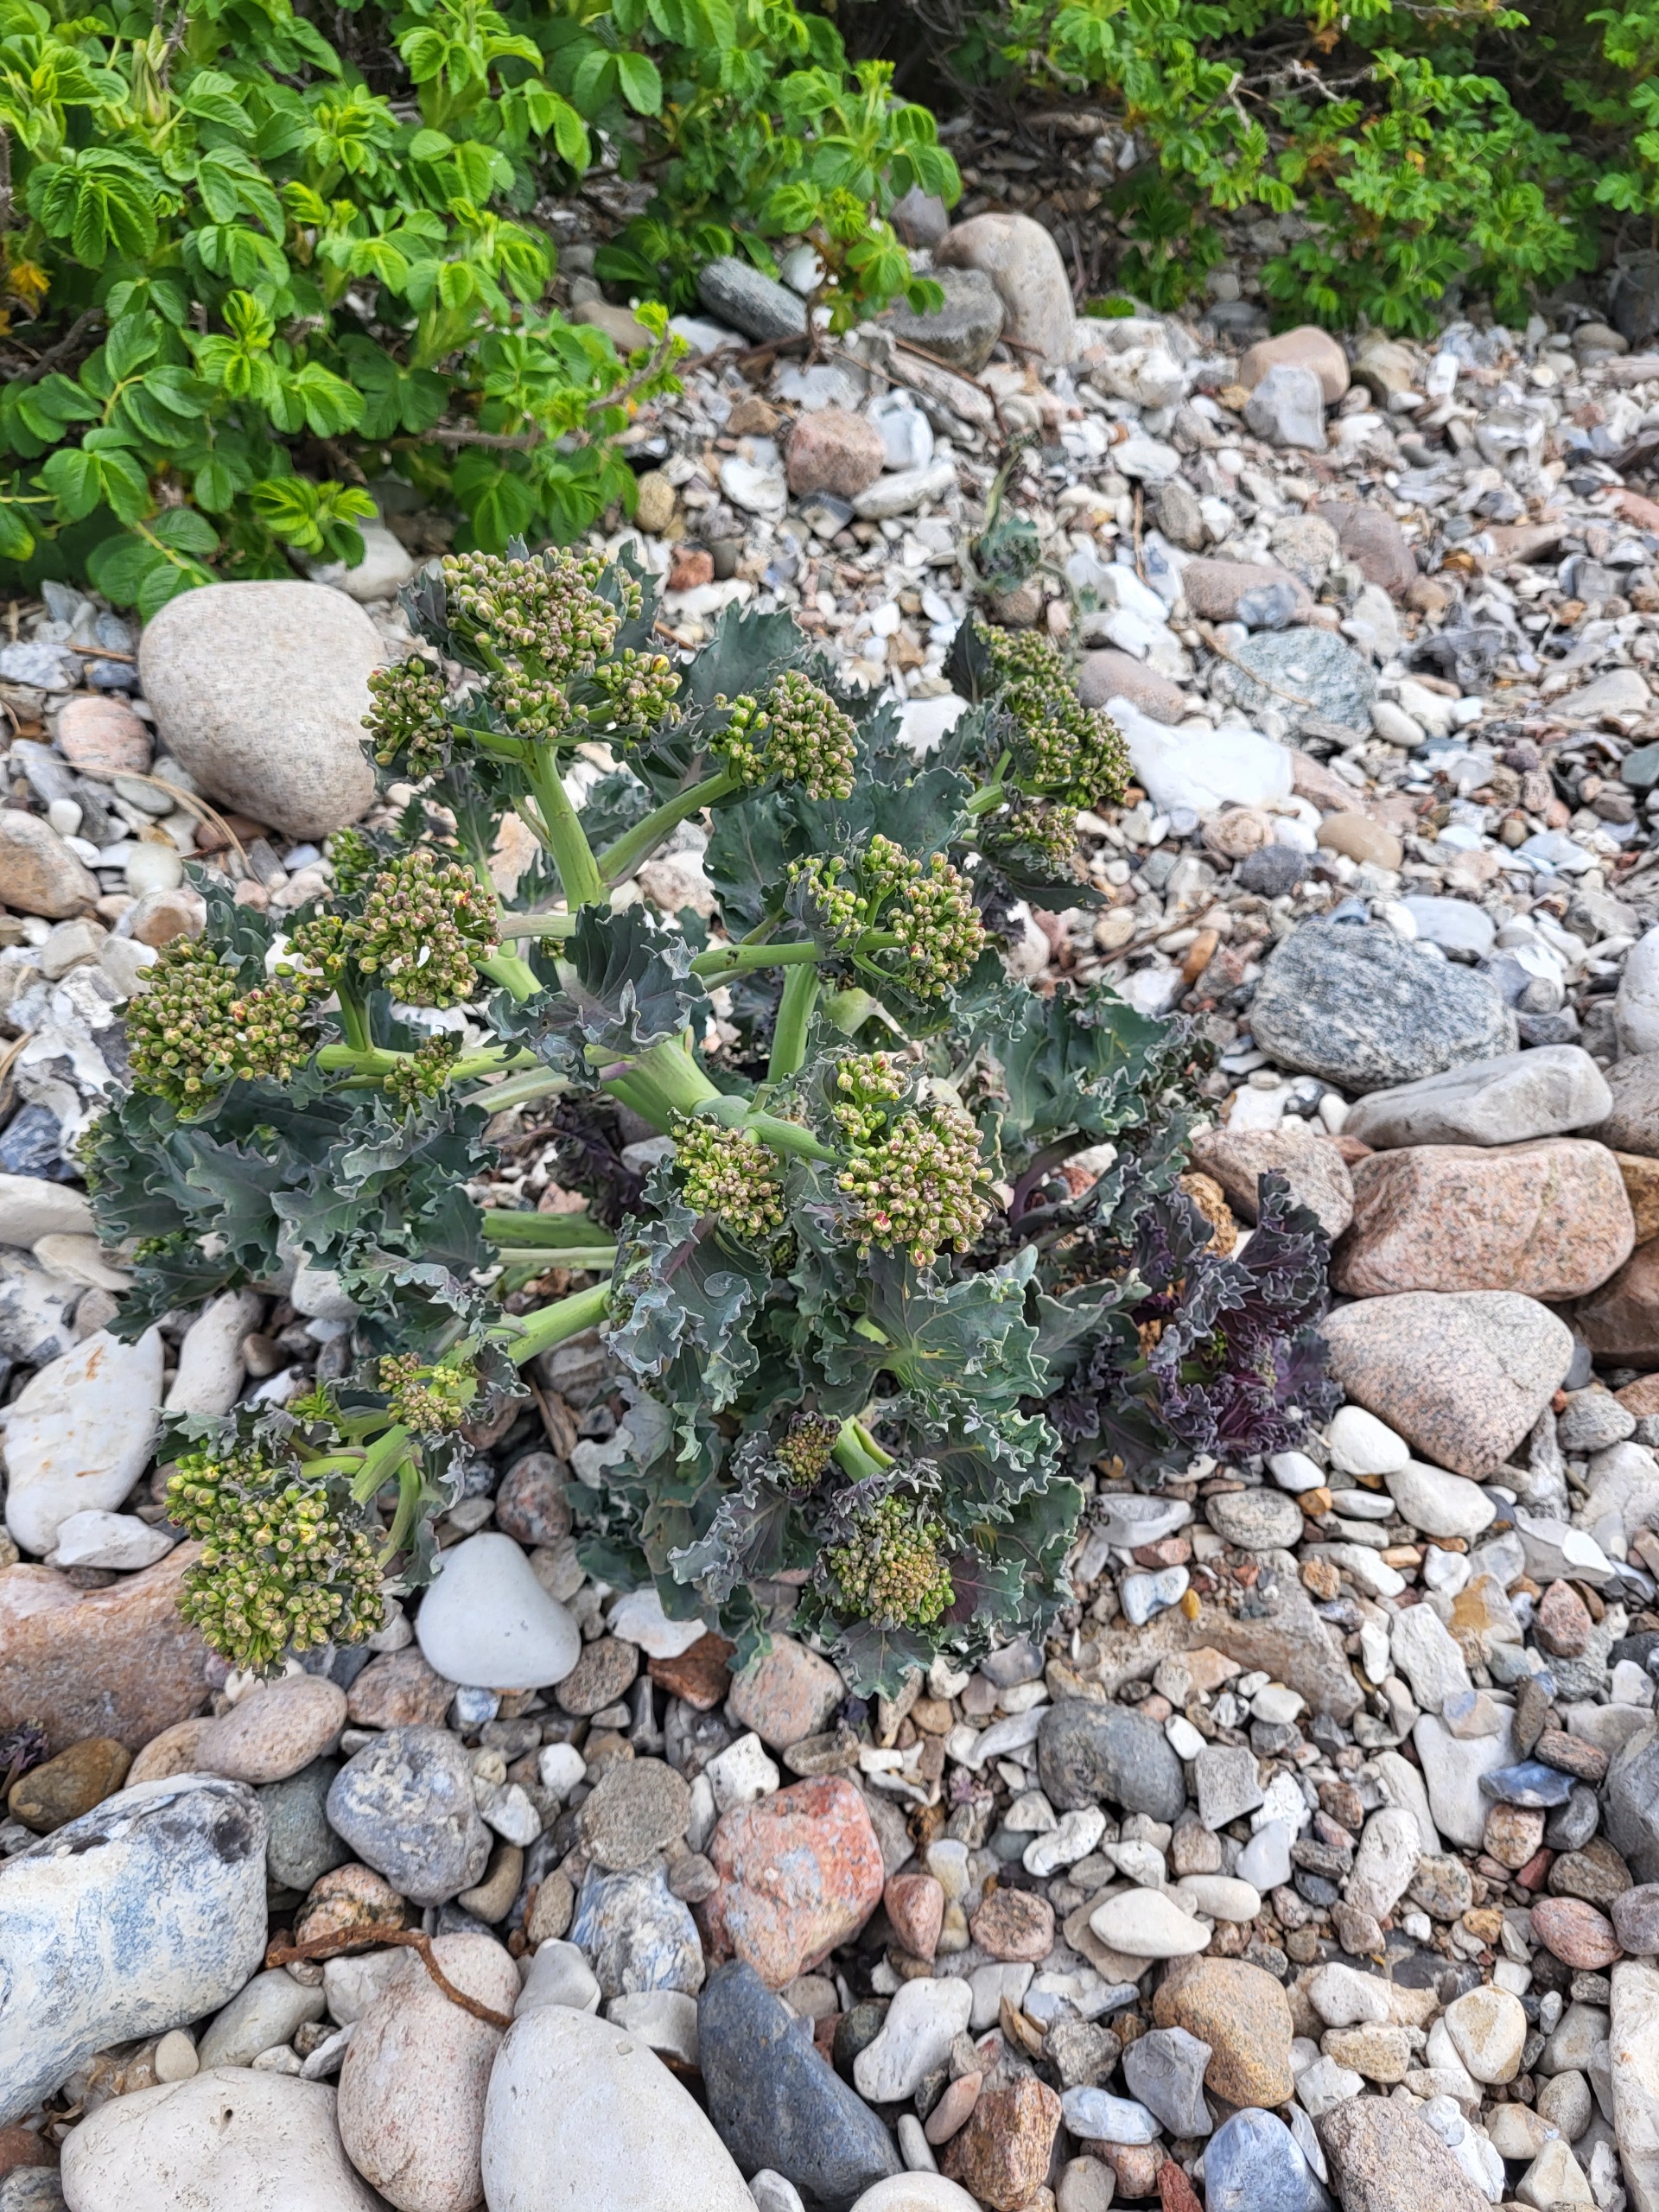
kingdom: Plantae
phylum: Tracheophyta
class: Magnoliopsida
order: Brassicales
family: Brassicaceae
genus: Crambe
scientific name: Crambe maritima
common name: Strandkål
